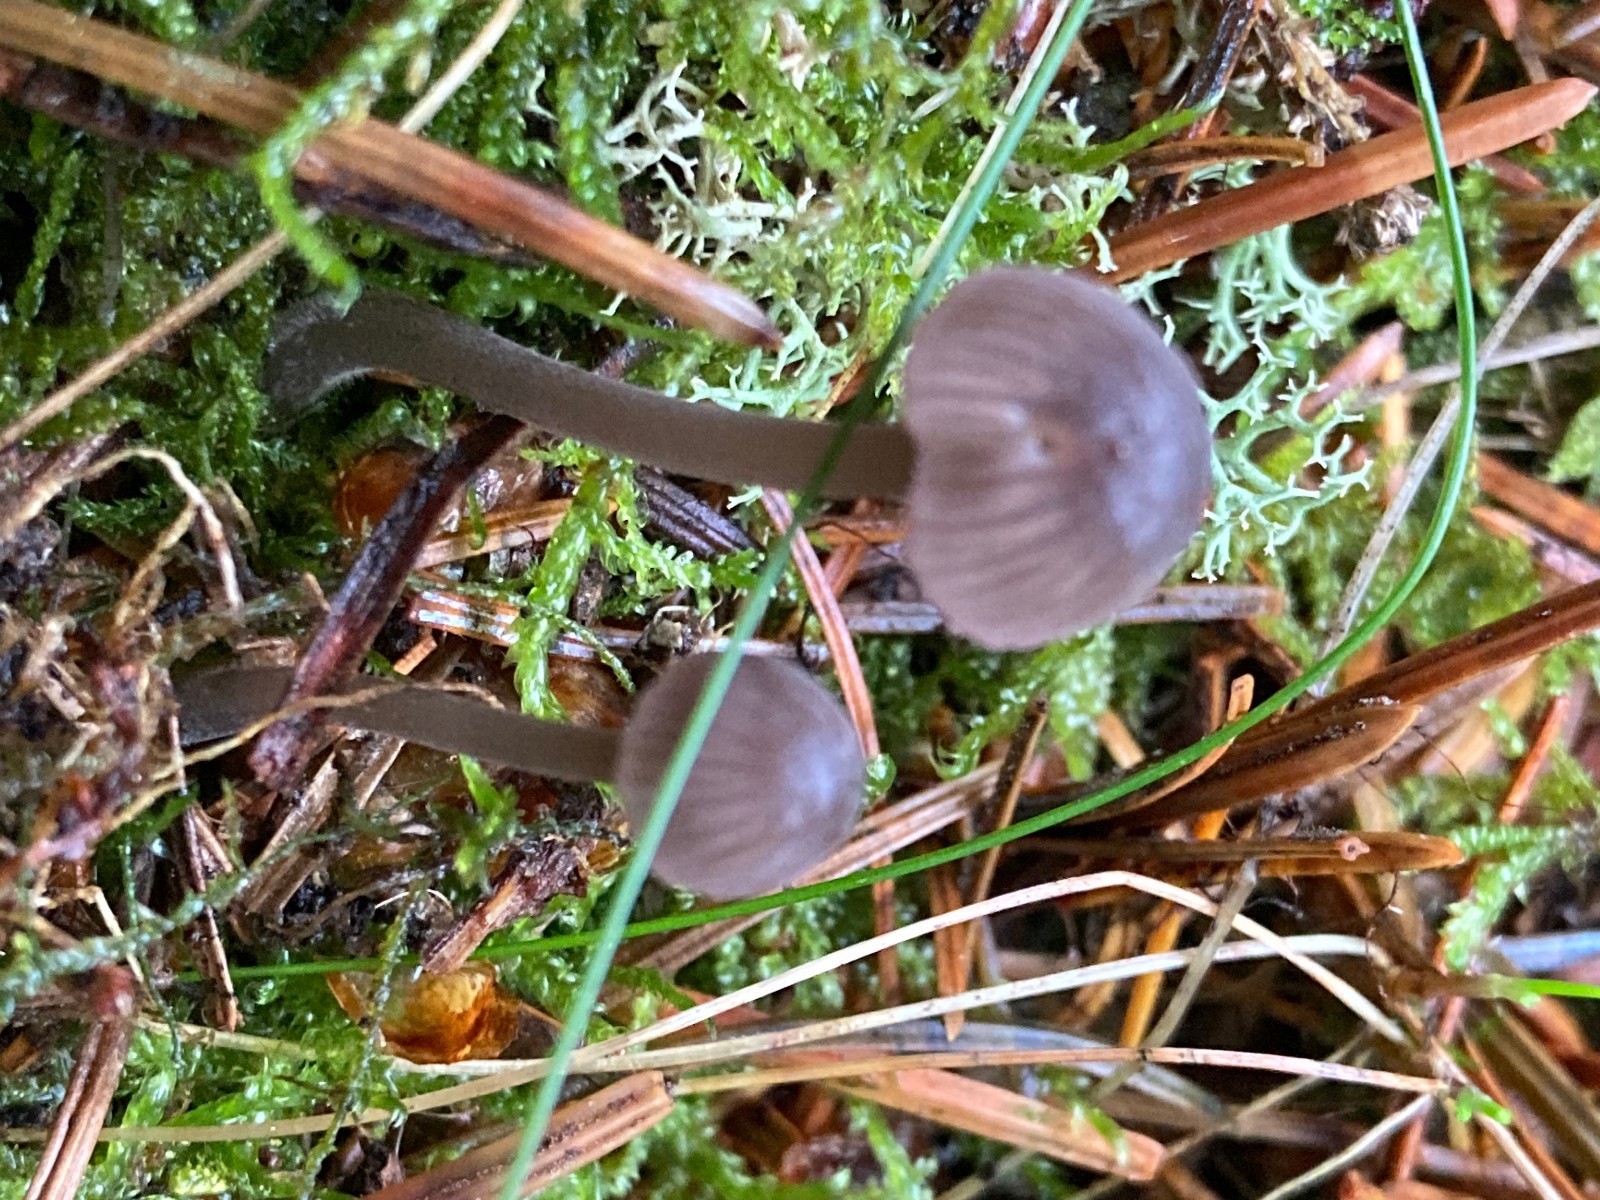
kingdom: Fungi
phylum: Basidiomycota
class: Agaricomycetes
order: Agaricales
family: Mycenaceae
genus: Mycena
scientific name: Mycena rubromarginata
